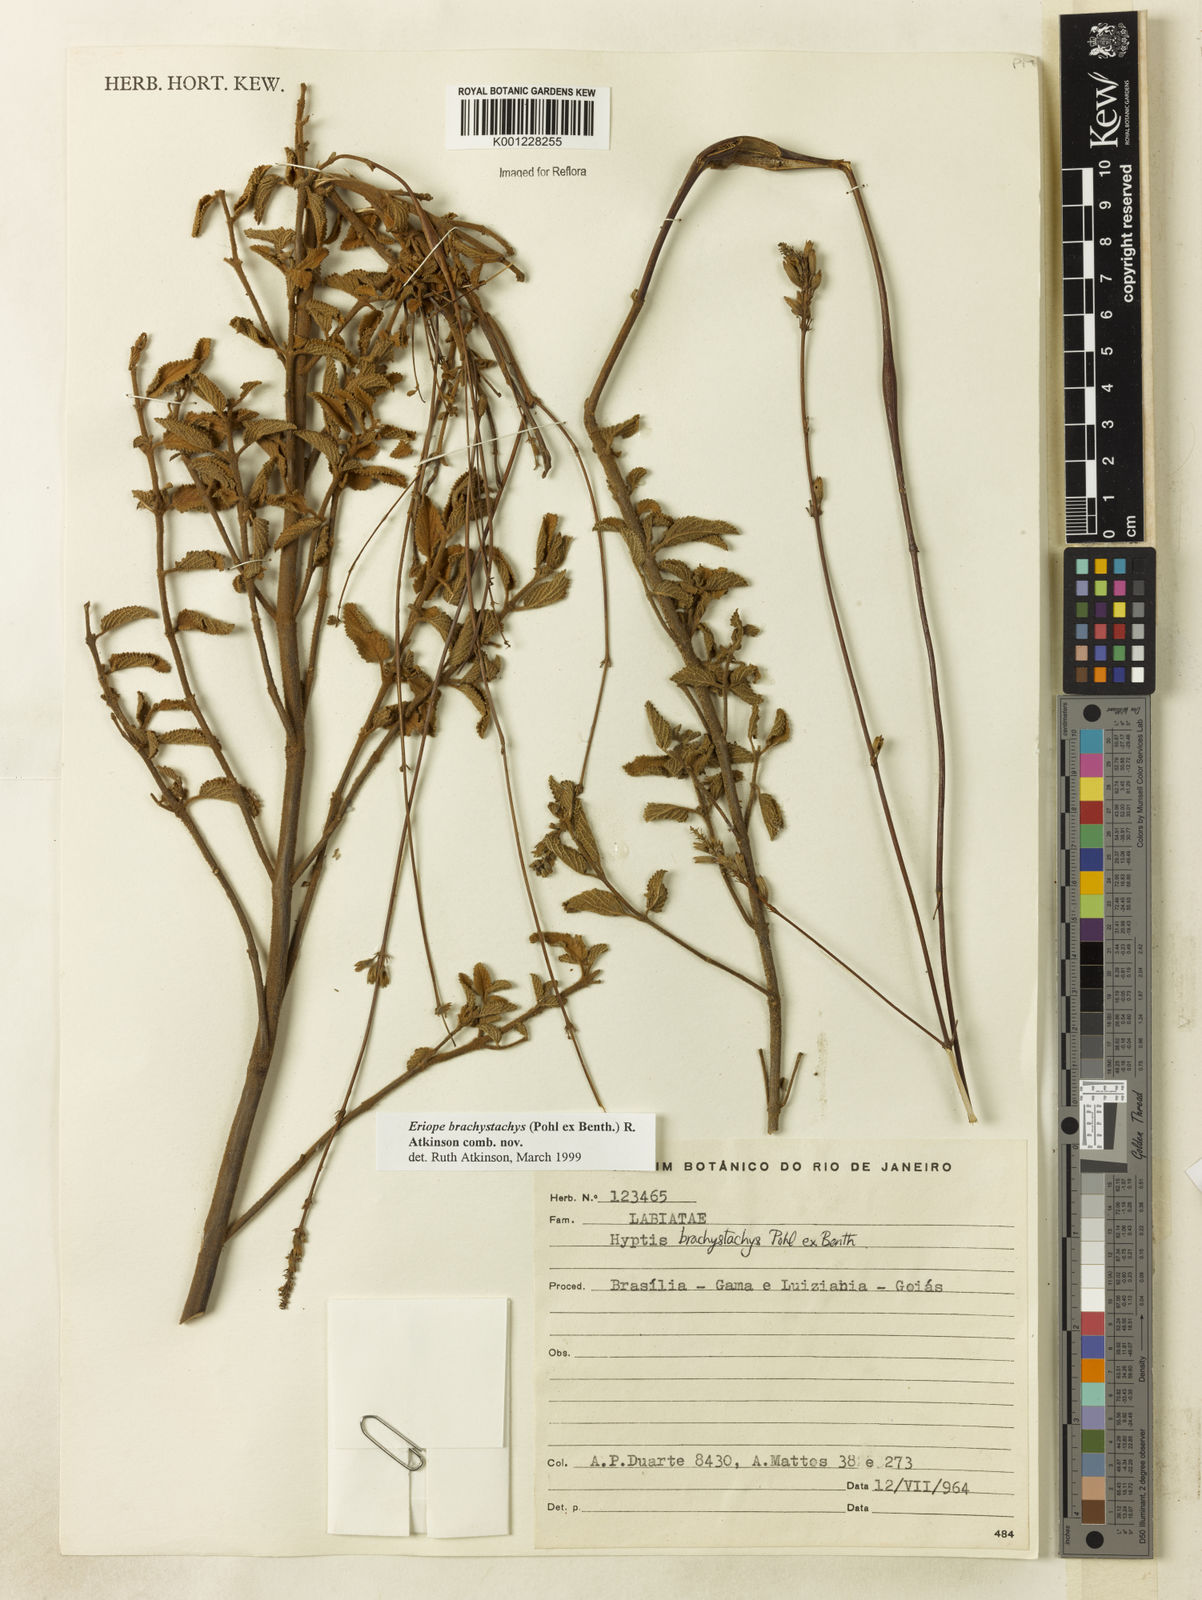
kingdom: Plantae
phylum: Tracheophyta
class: Magnoliopsida
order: Lamiales
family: Lamiaceae
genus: Hypenia
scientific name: Hypenia brachystachys
